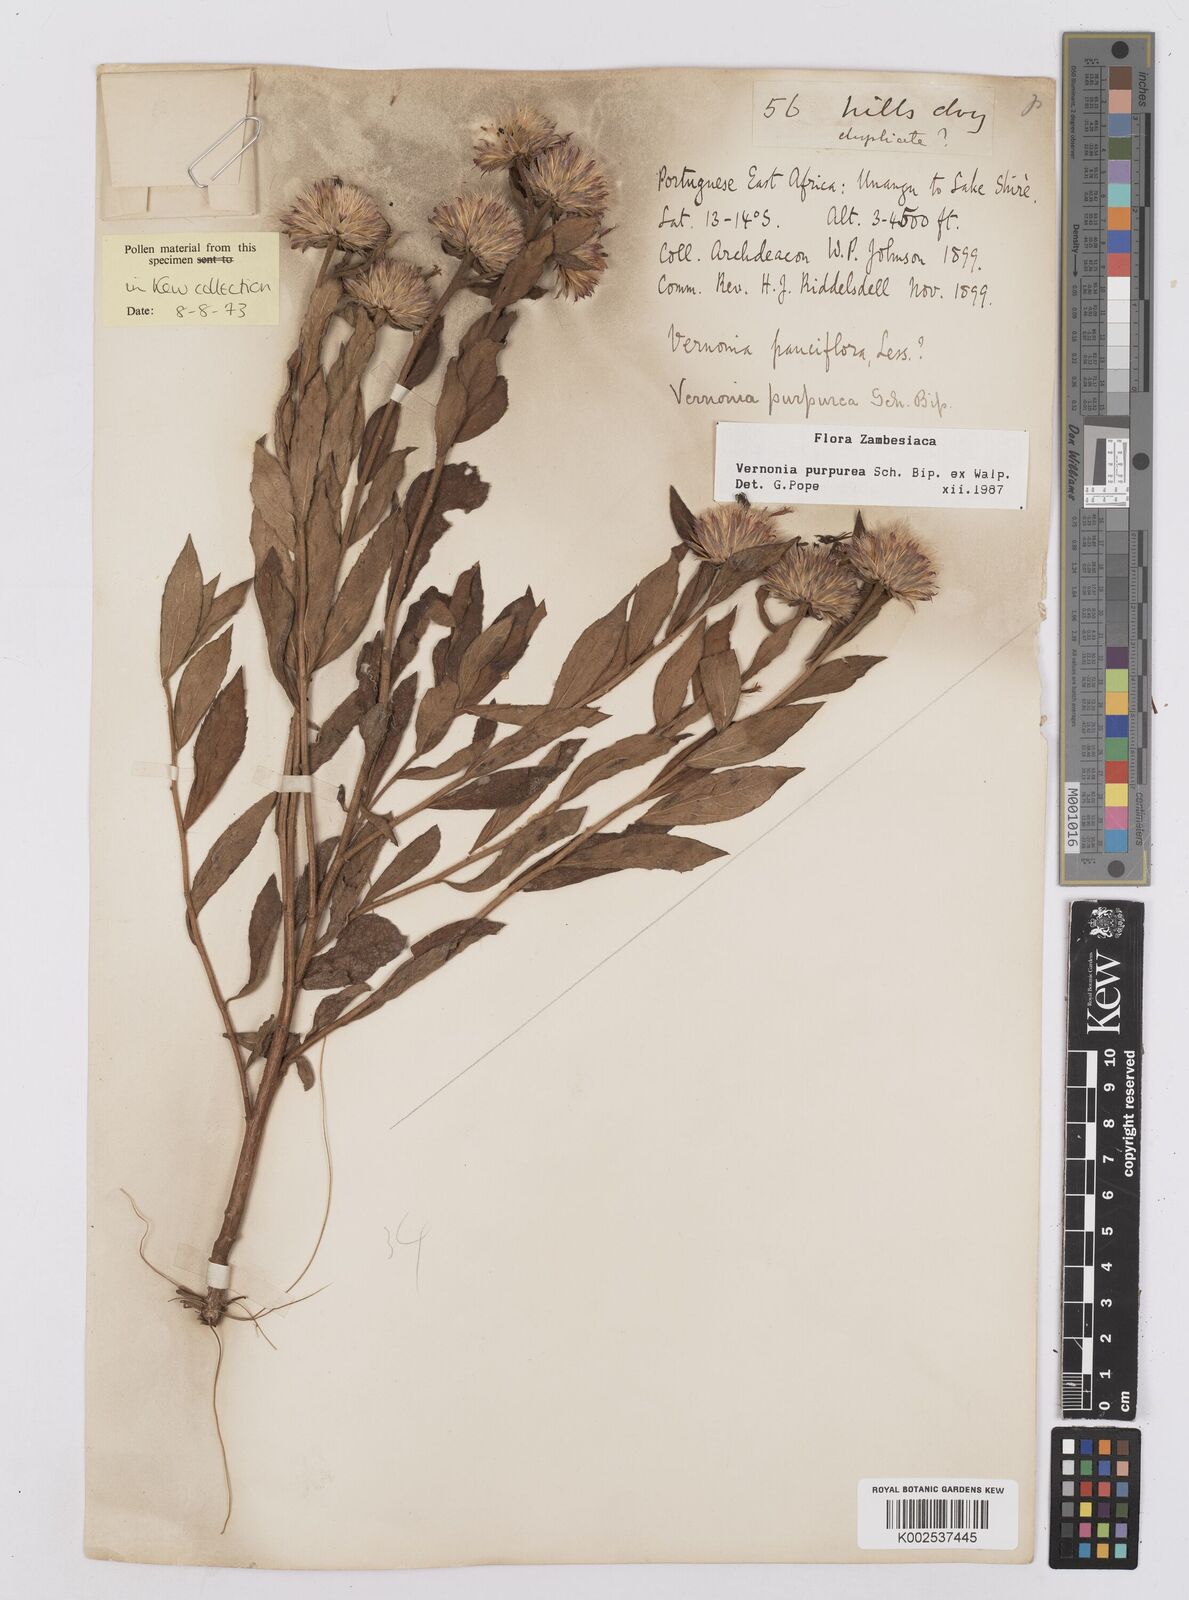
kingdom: Plantae
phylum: Tracheophyta
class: Magnoliopsida
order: Asterales
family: Asteraceae
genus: Nothovernonia
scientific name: Nothovernonia purpurea
